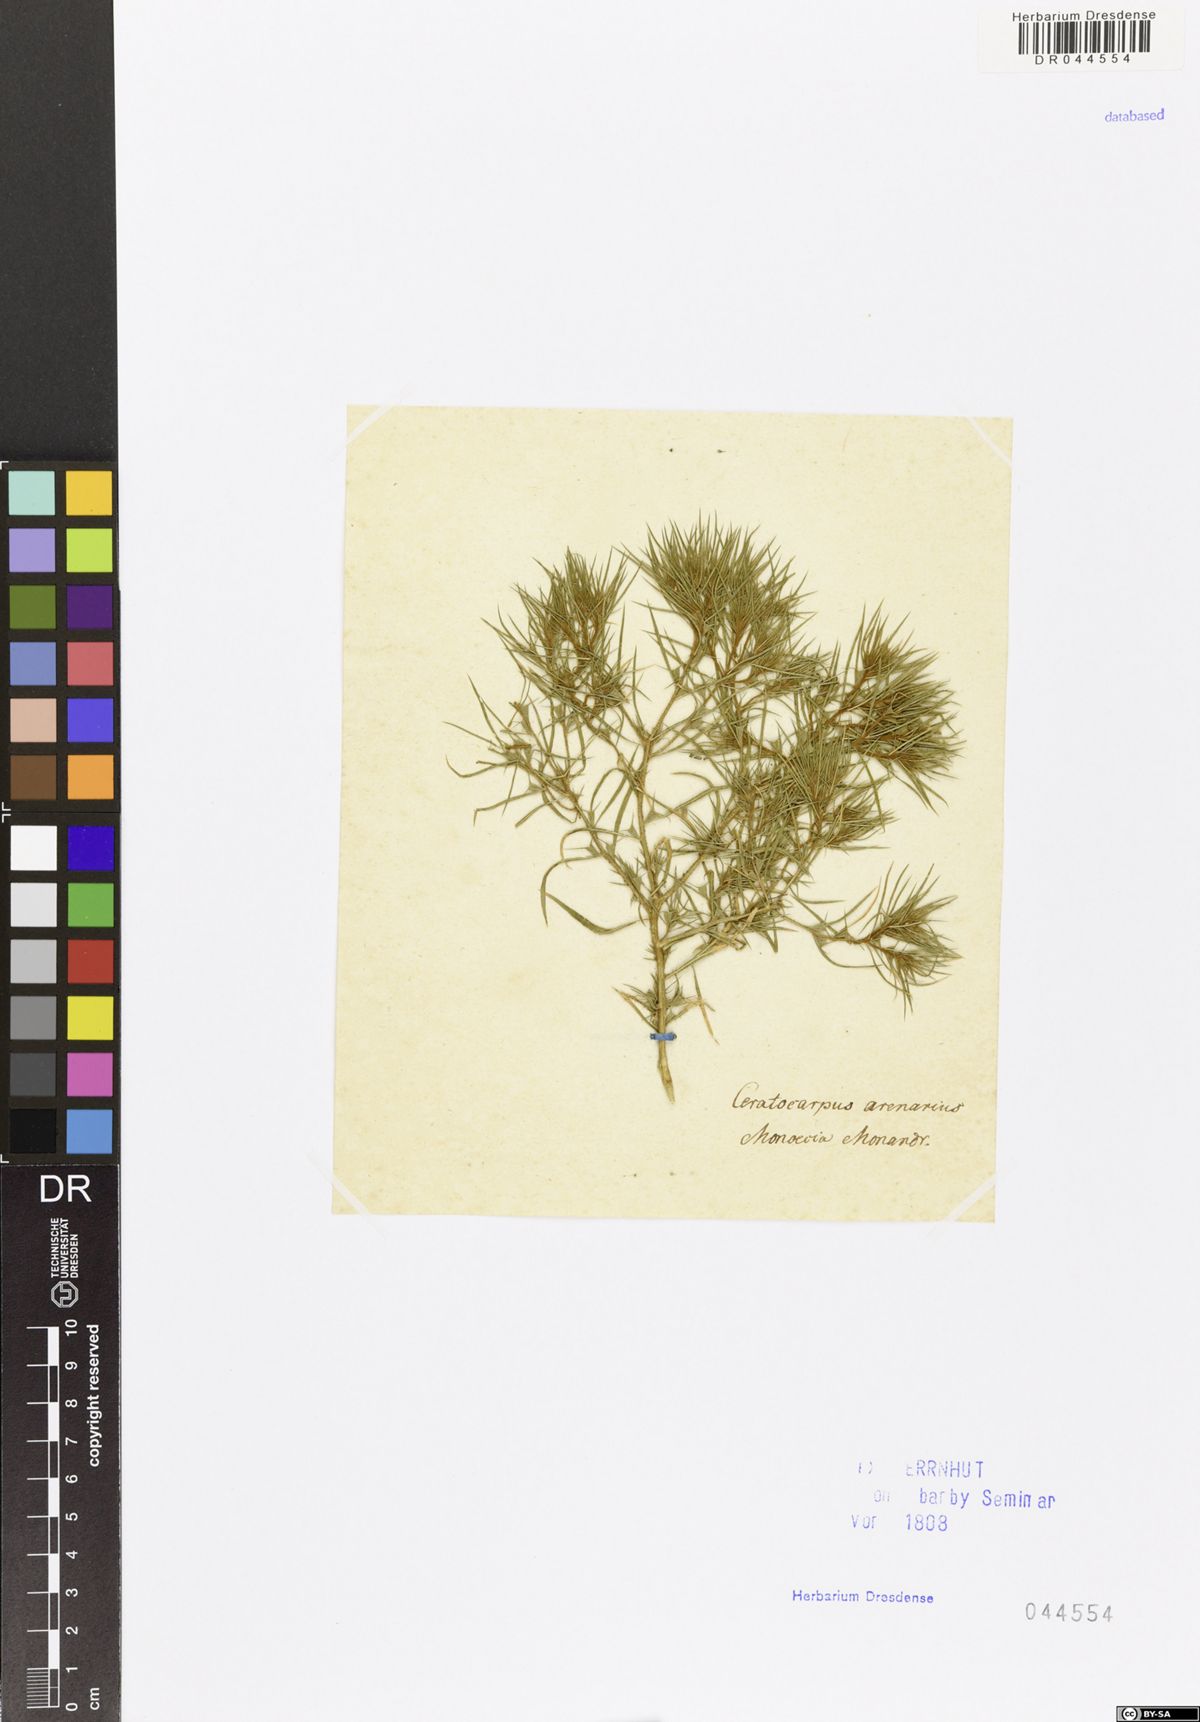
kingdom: Plantae
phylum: Tracheophyta
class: Magnoliopsida
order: Caryophyllales
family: Amaranthaceae
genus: Ceratocarpus
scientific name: Ceratocarpus arenarius
